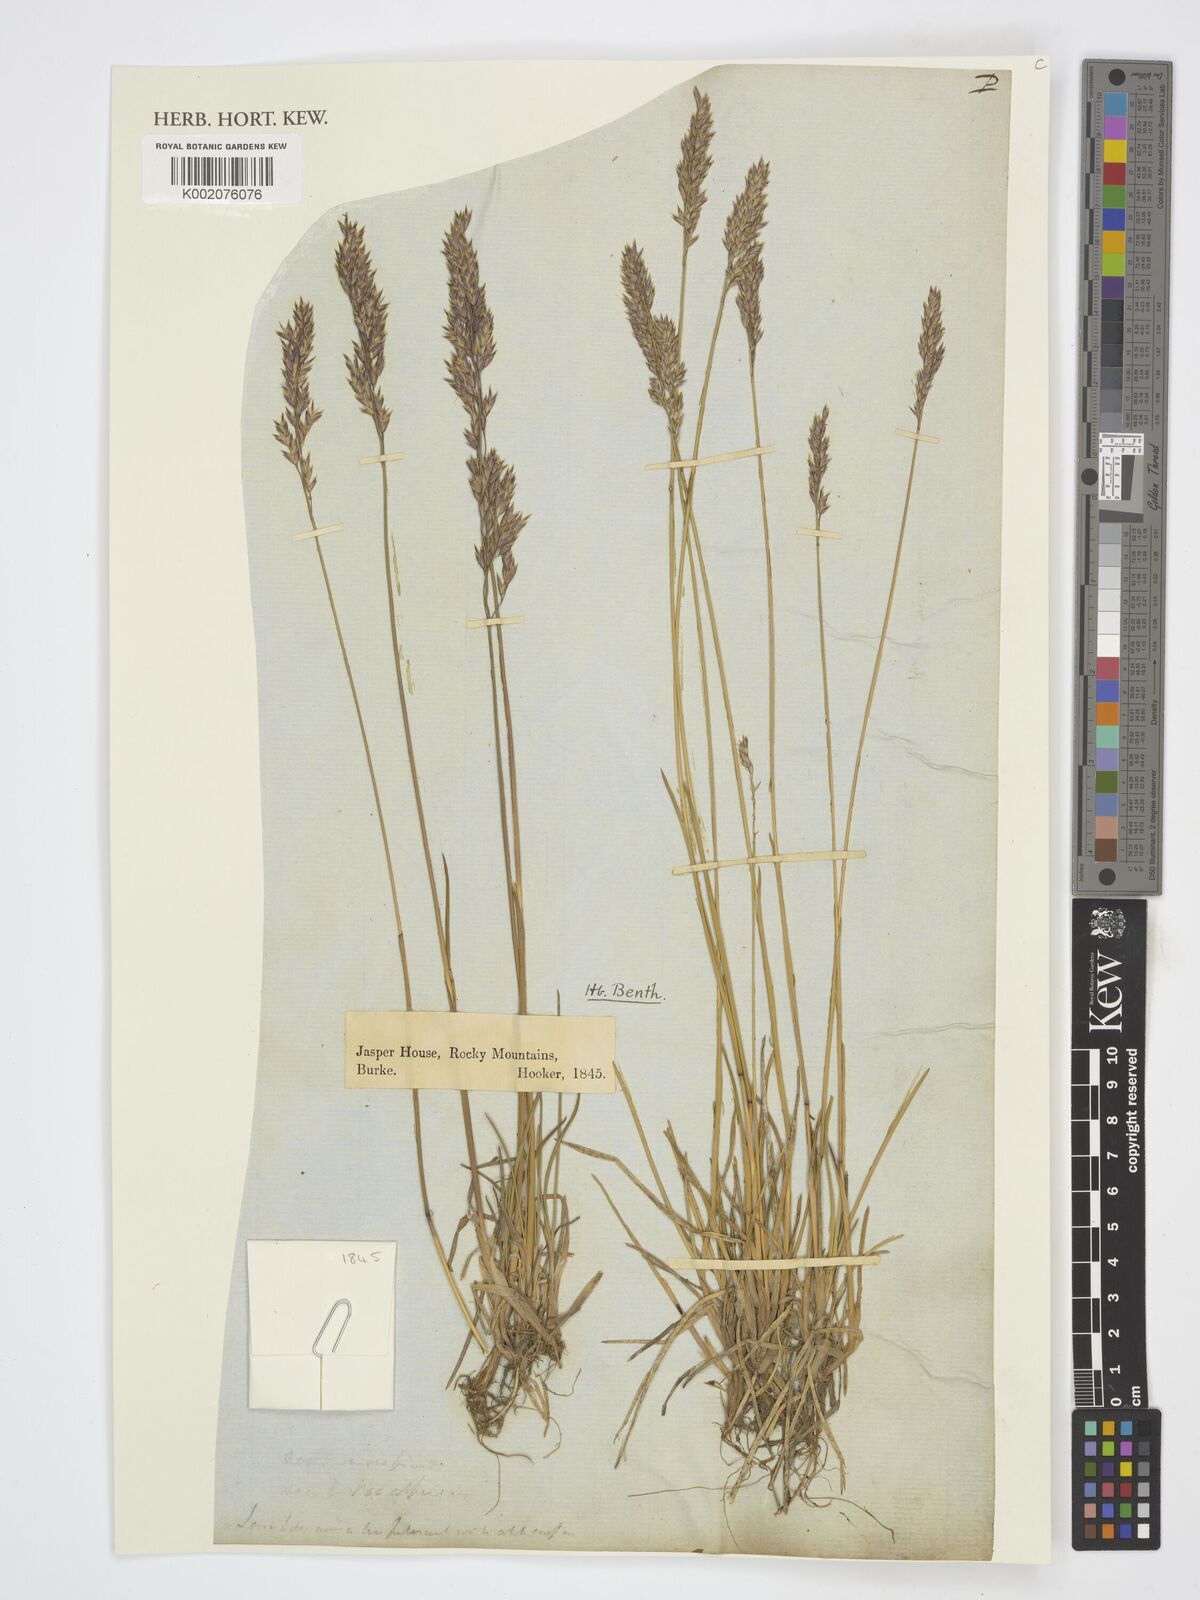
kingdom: Plantae
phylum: Tracheophyta
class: Liliopsida
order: Poales
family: Poaceae
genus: Poa
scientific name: Poa
